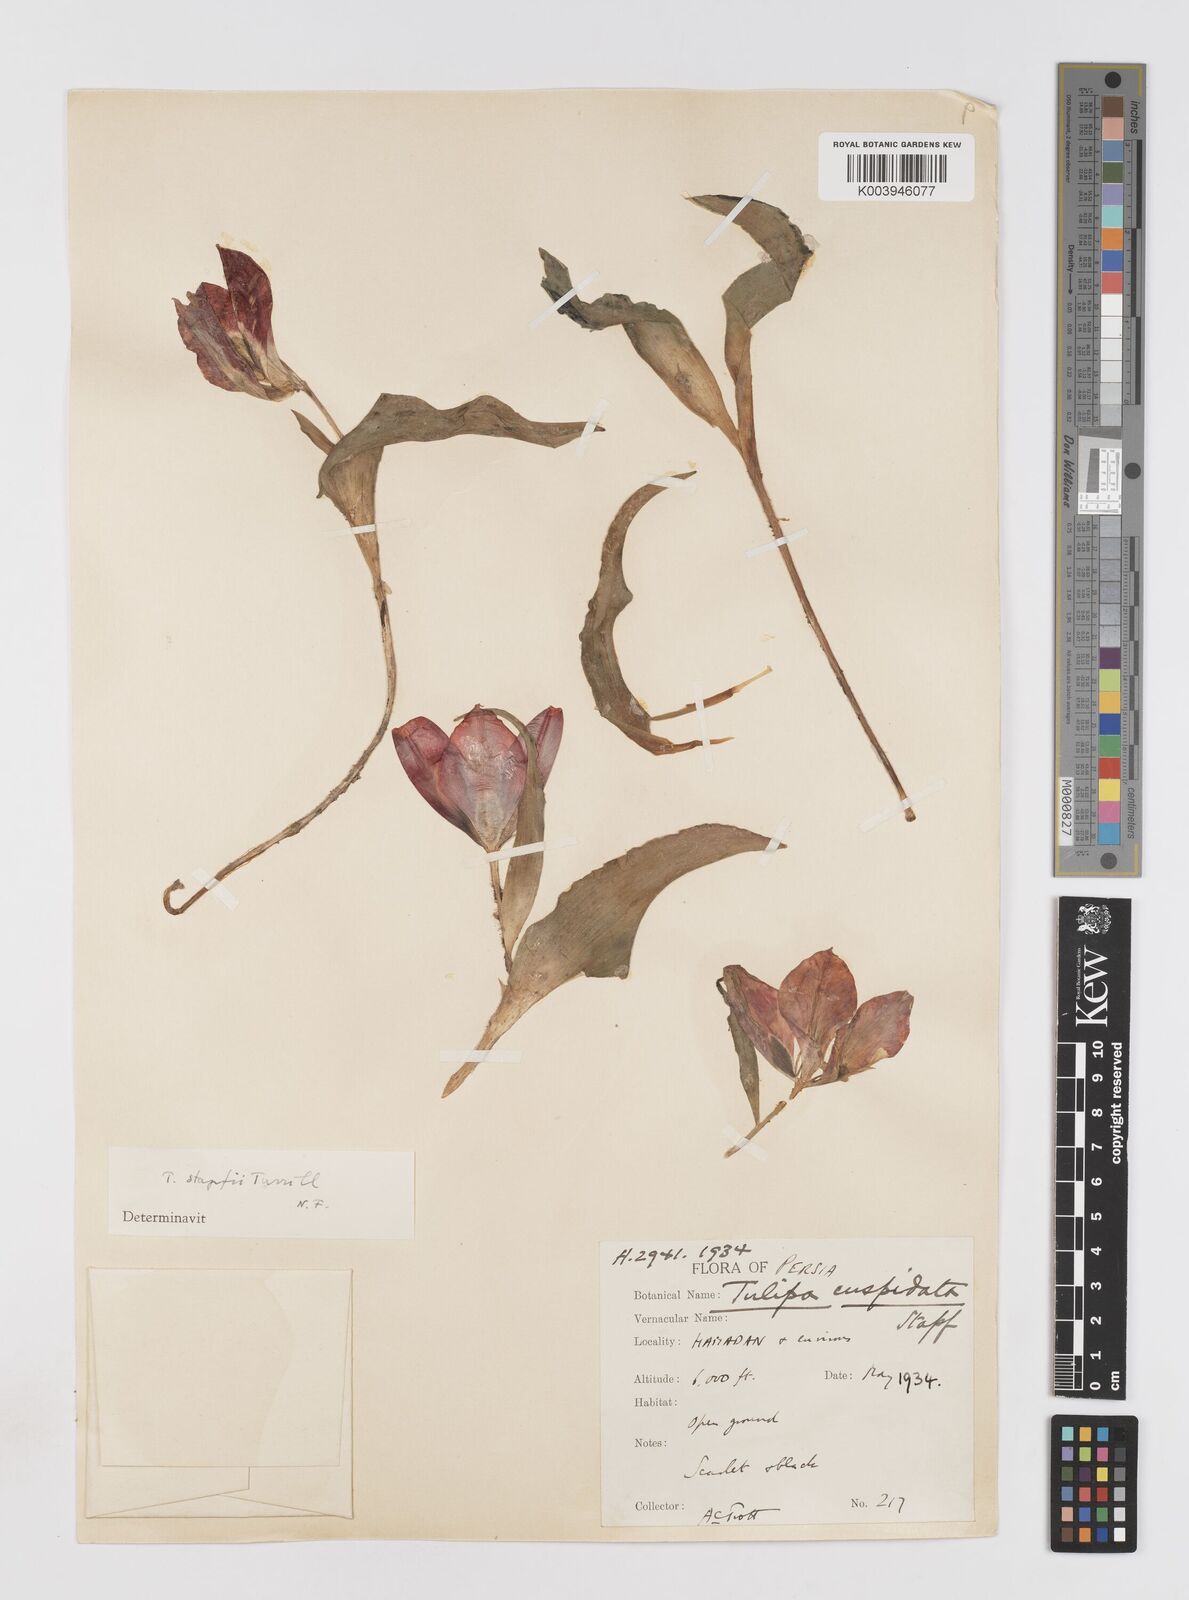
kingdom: Plantae
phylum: Tracheophyta
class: Liliopsida
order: Liliales
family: Liliaceae
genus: Tulipa
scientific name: Tulipa systola
